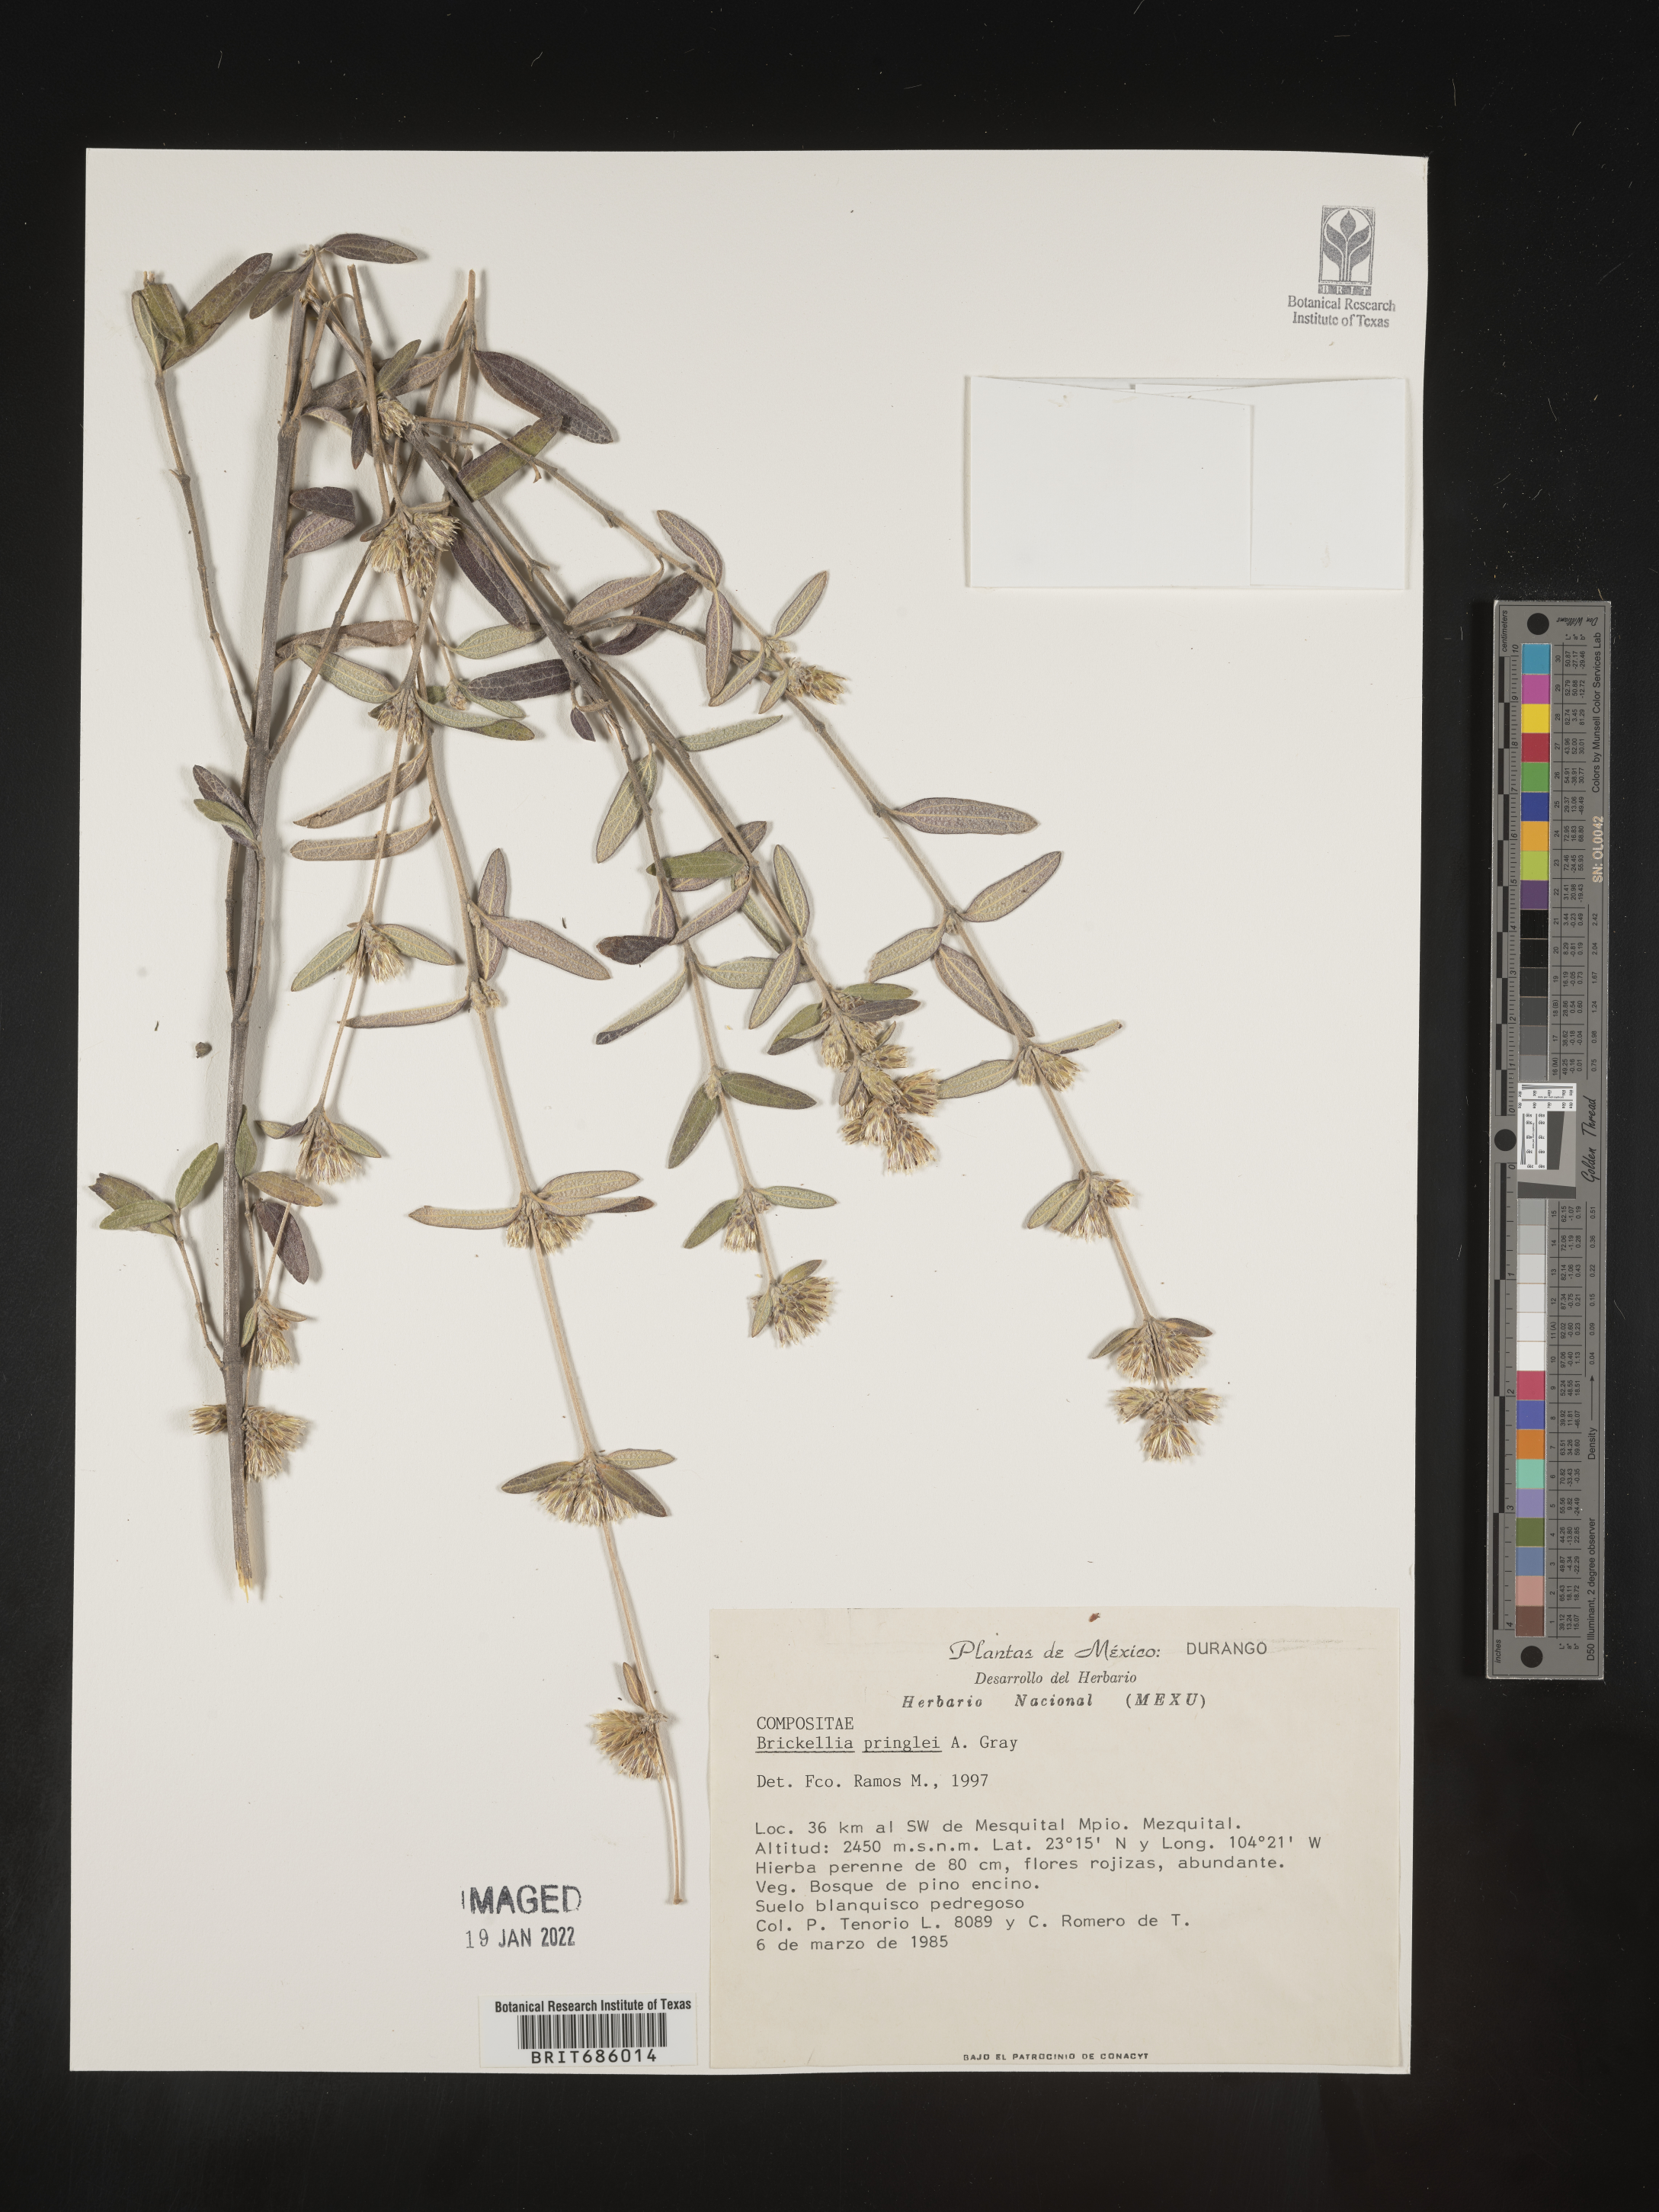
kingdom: Plantae
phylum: Tracheophyta
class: Magnoliopsida
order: Asterales
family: Asteraceae
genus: Brickellia
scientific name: Brickellia
